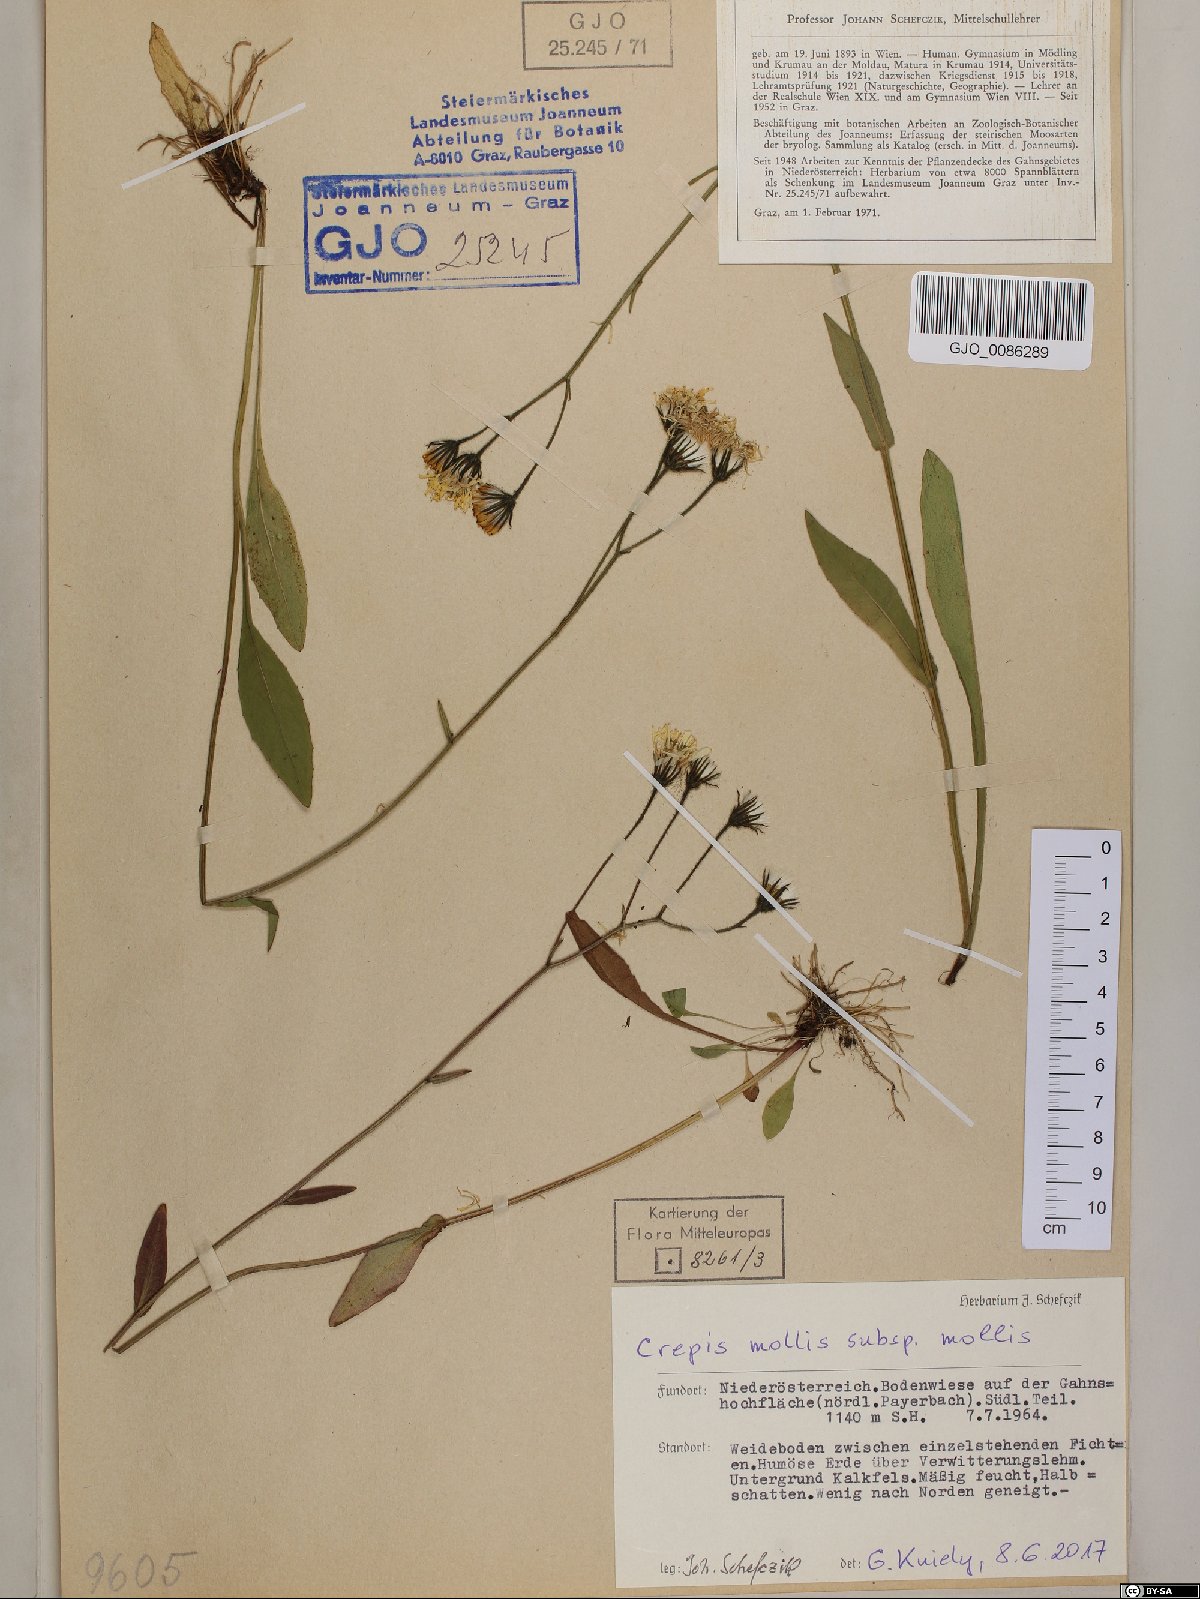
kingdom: Plantae
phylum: Tracheophyta
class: Magnoliopsida
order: Asterales
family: Asteraceae
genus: Crepis
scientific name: Crepis mollis
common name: Northern hawk's-beard
